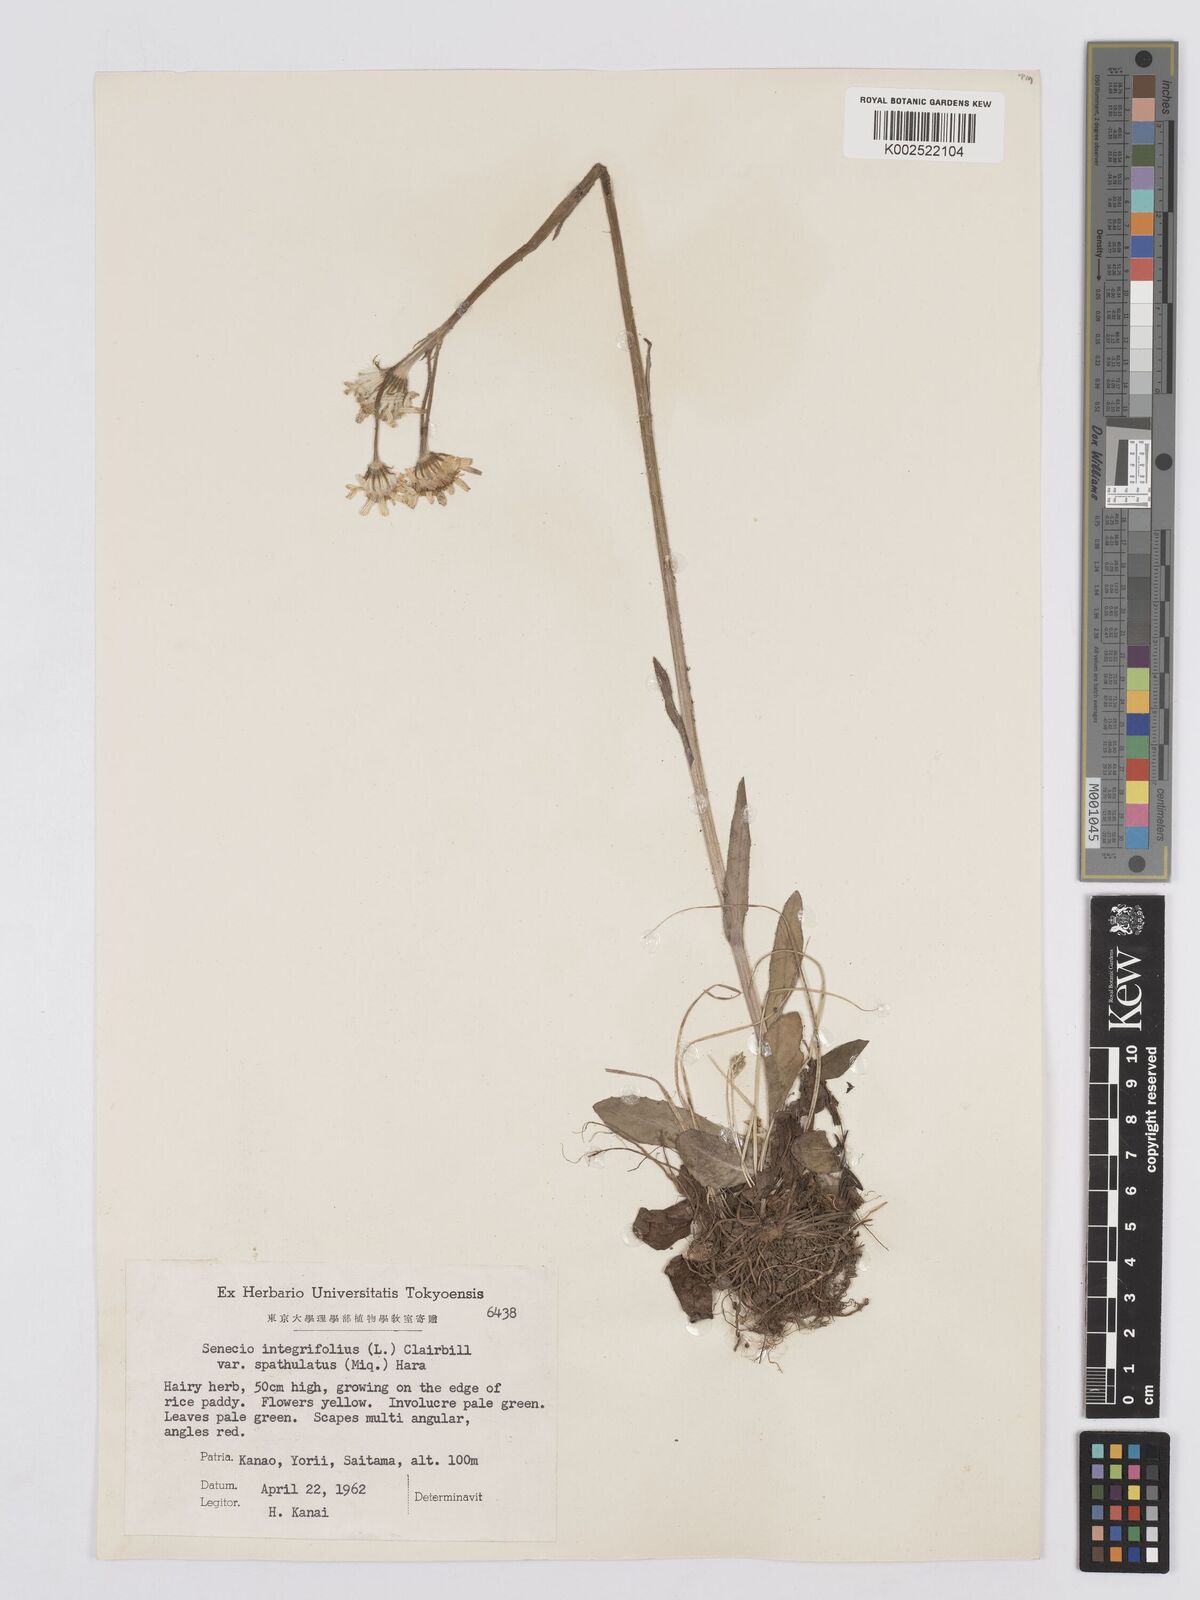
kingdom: Plantae
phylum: Tracheophyta
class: Magnoliopsida
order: Asterales
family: Asteraceae
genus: Tephroseris
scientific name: Tephroseris kirilowii
